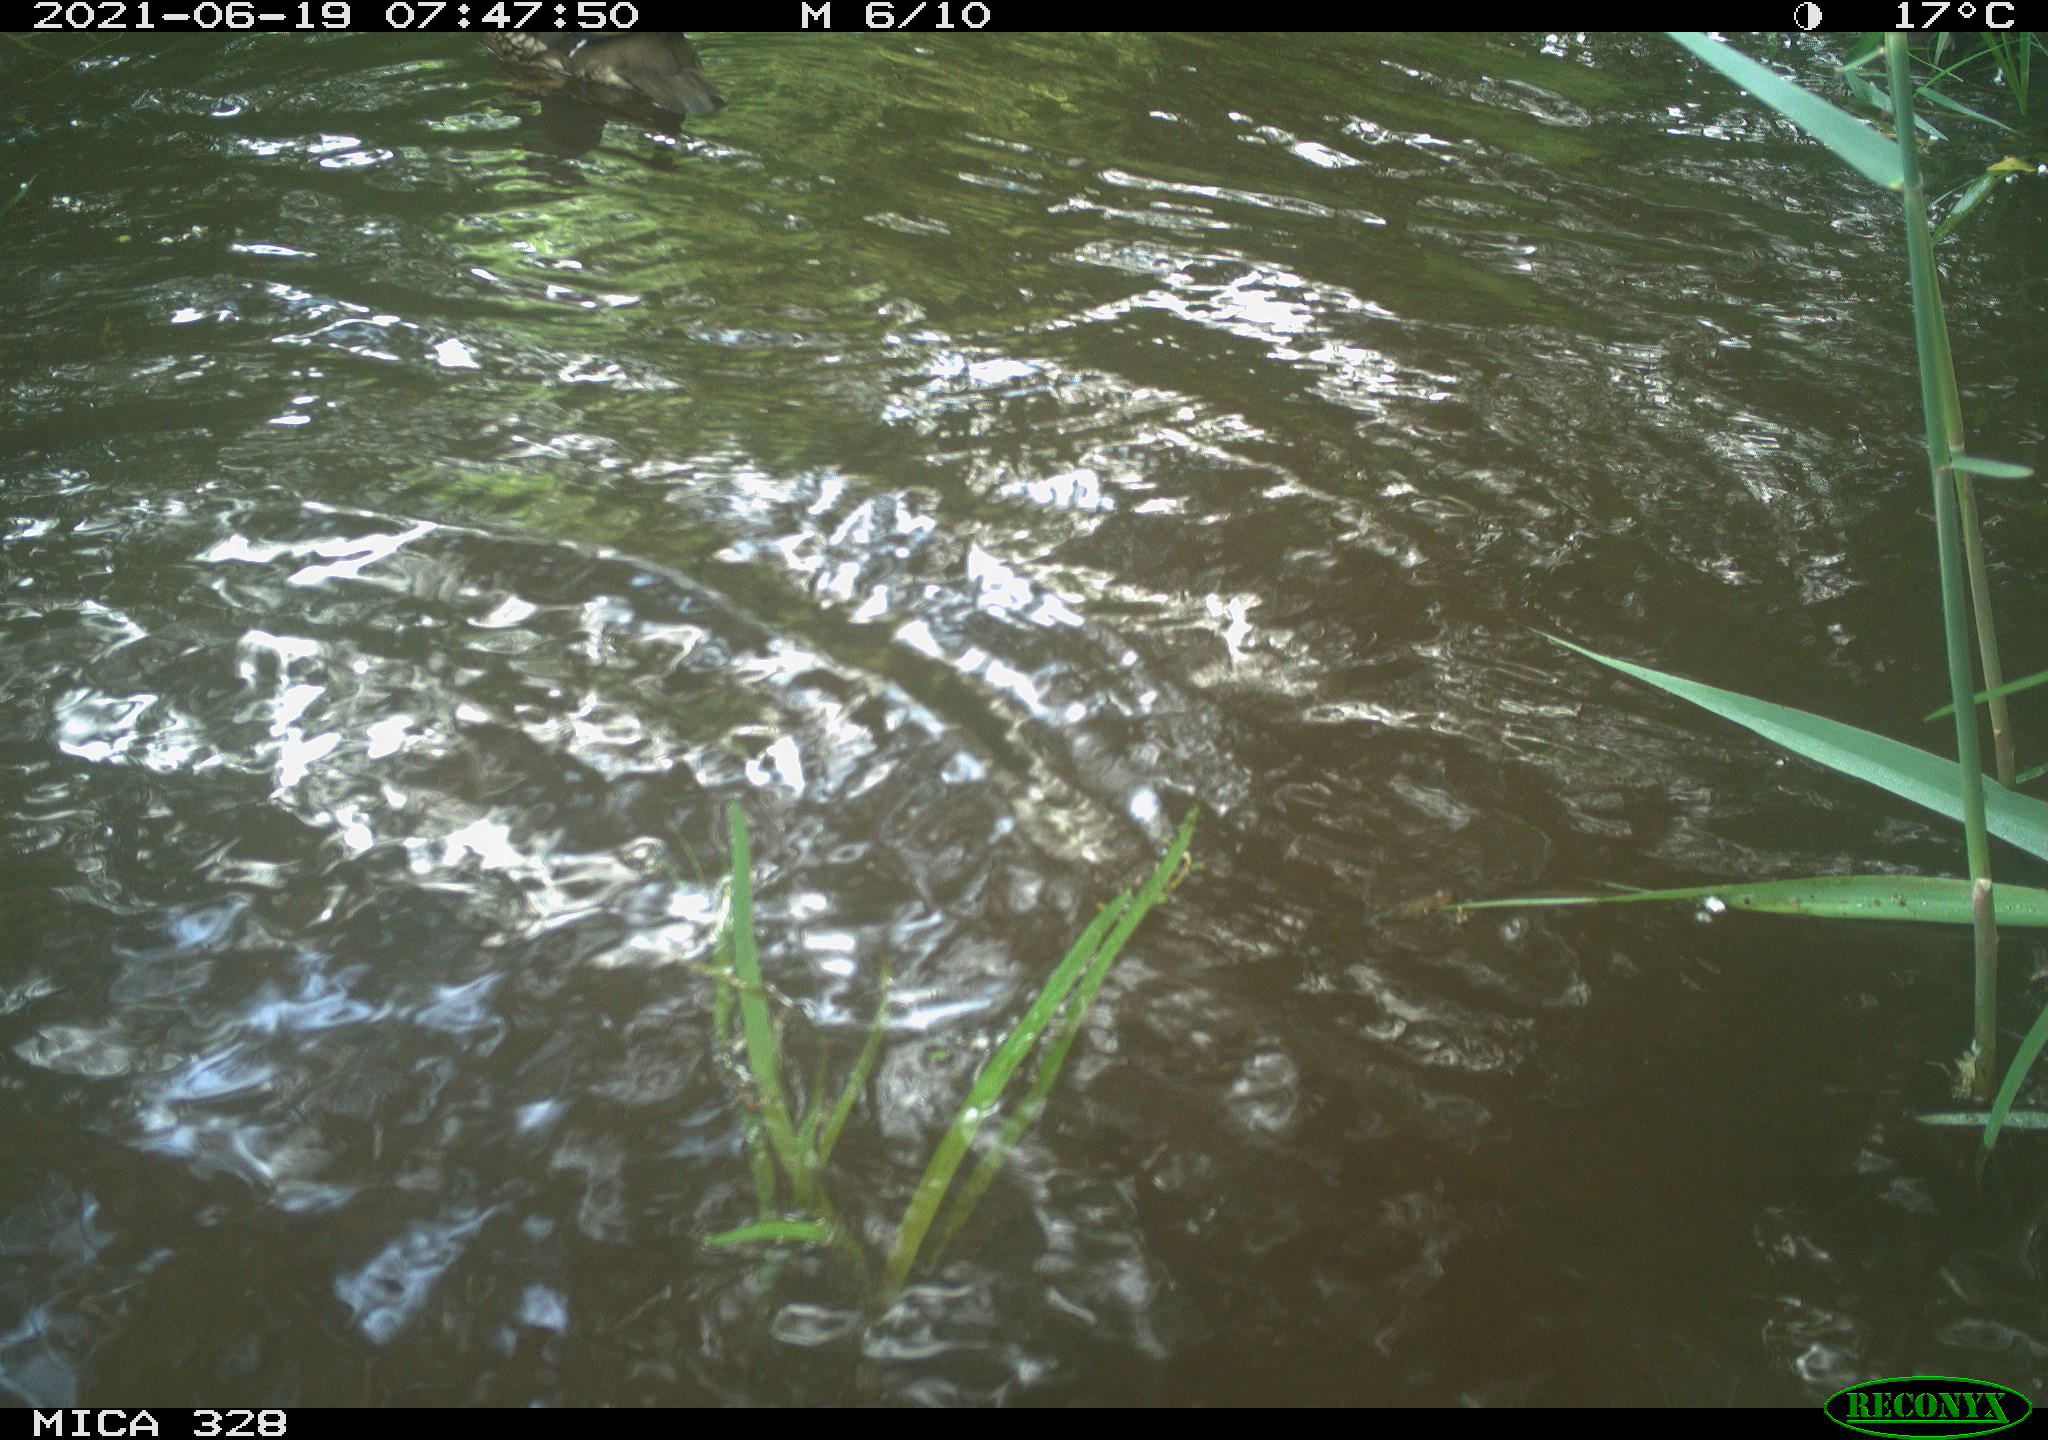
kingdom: Animalia
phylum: Chordata
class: Aves
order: Anseriformes
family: Anatidae
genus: Aix
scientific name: Aix galericulata
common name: Mandarin duck
